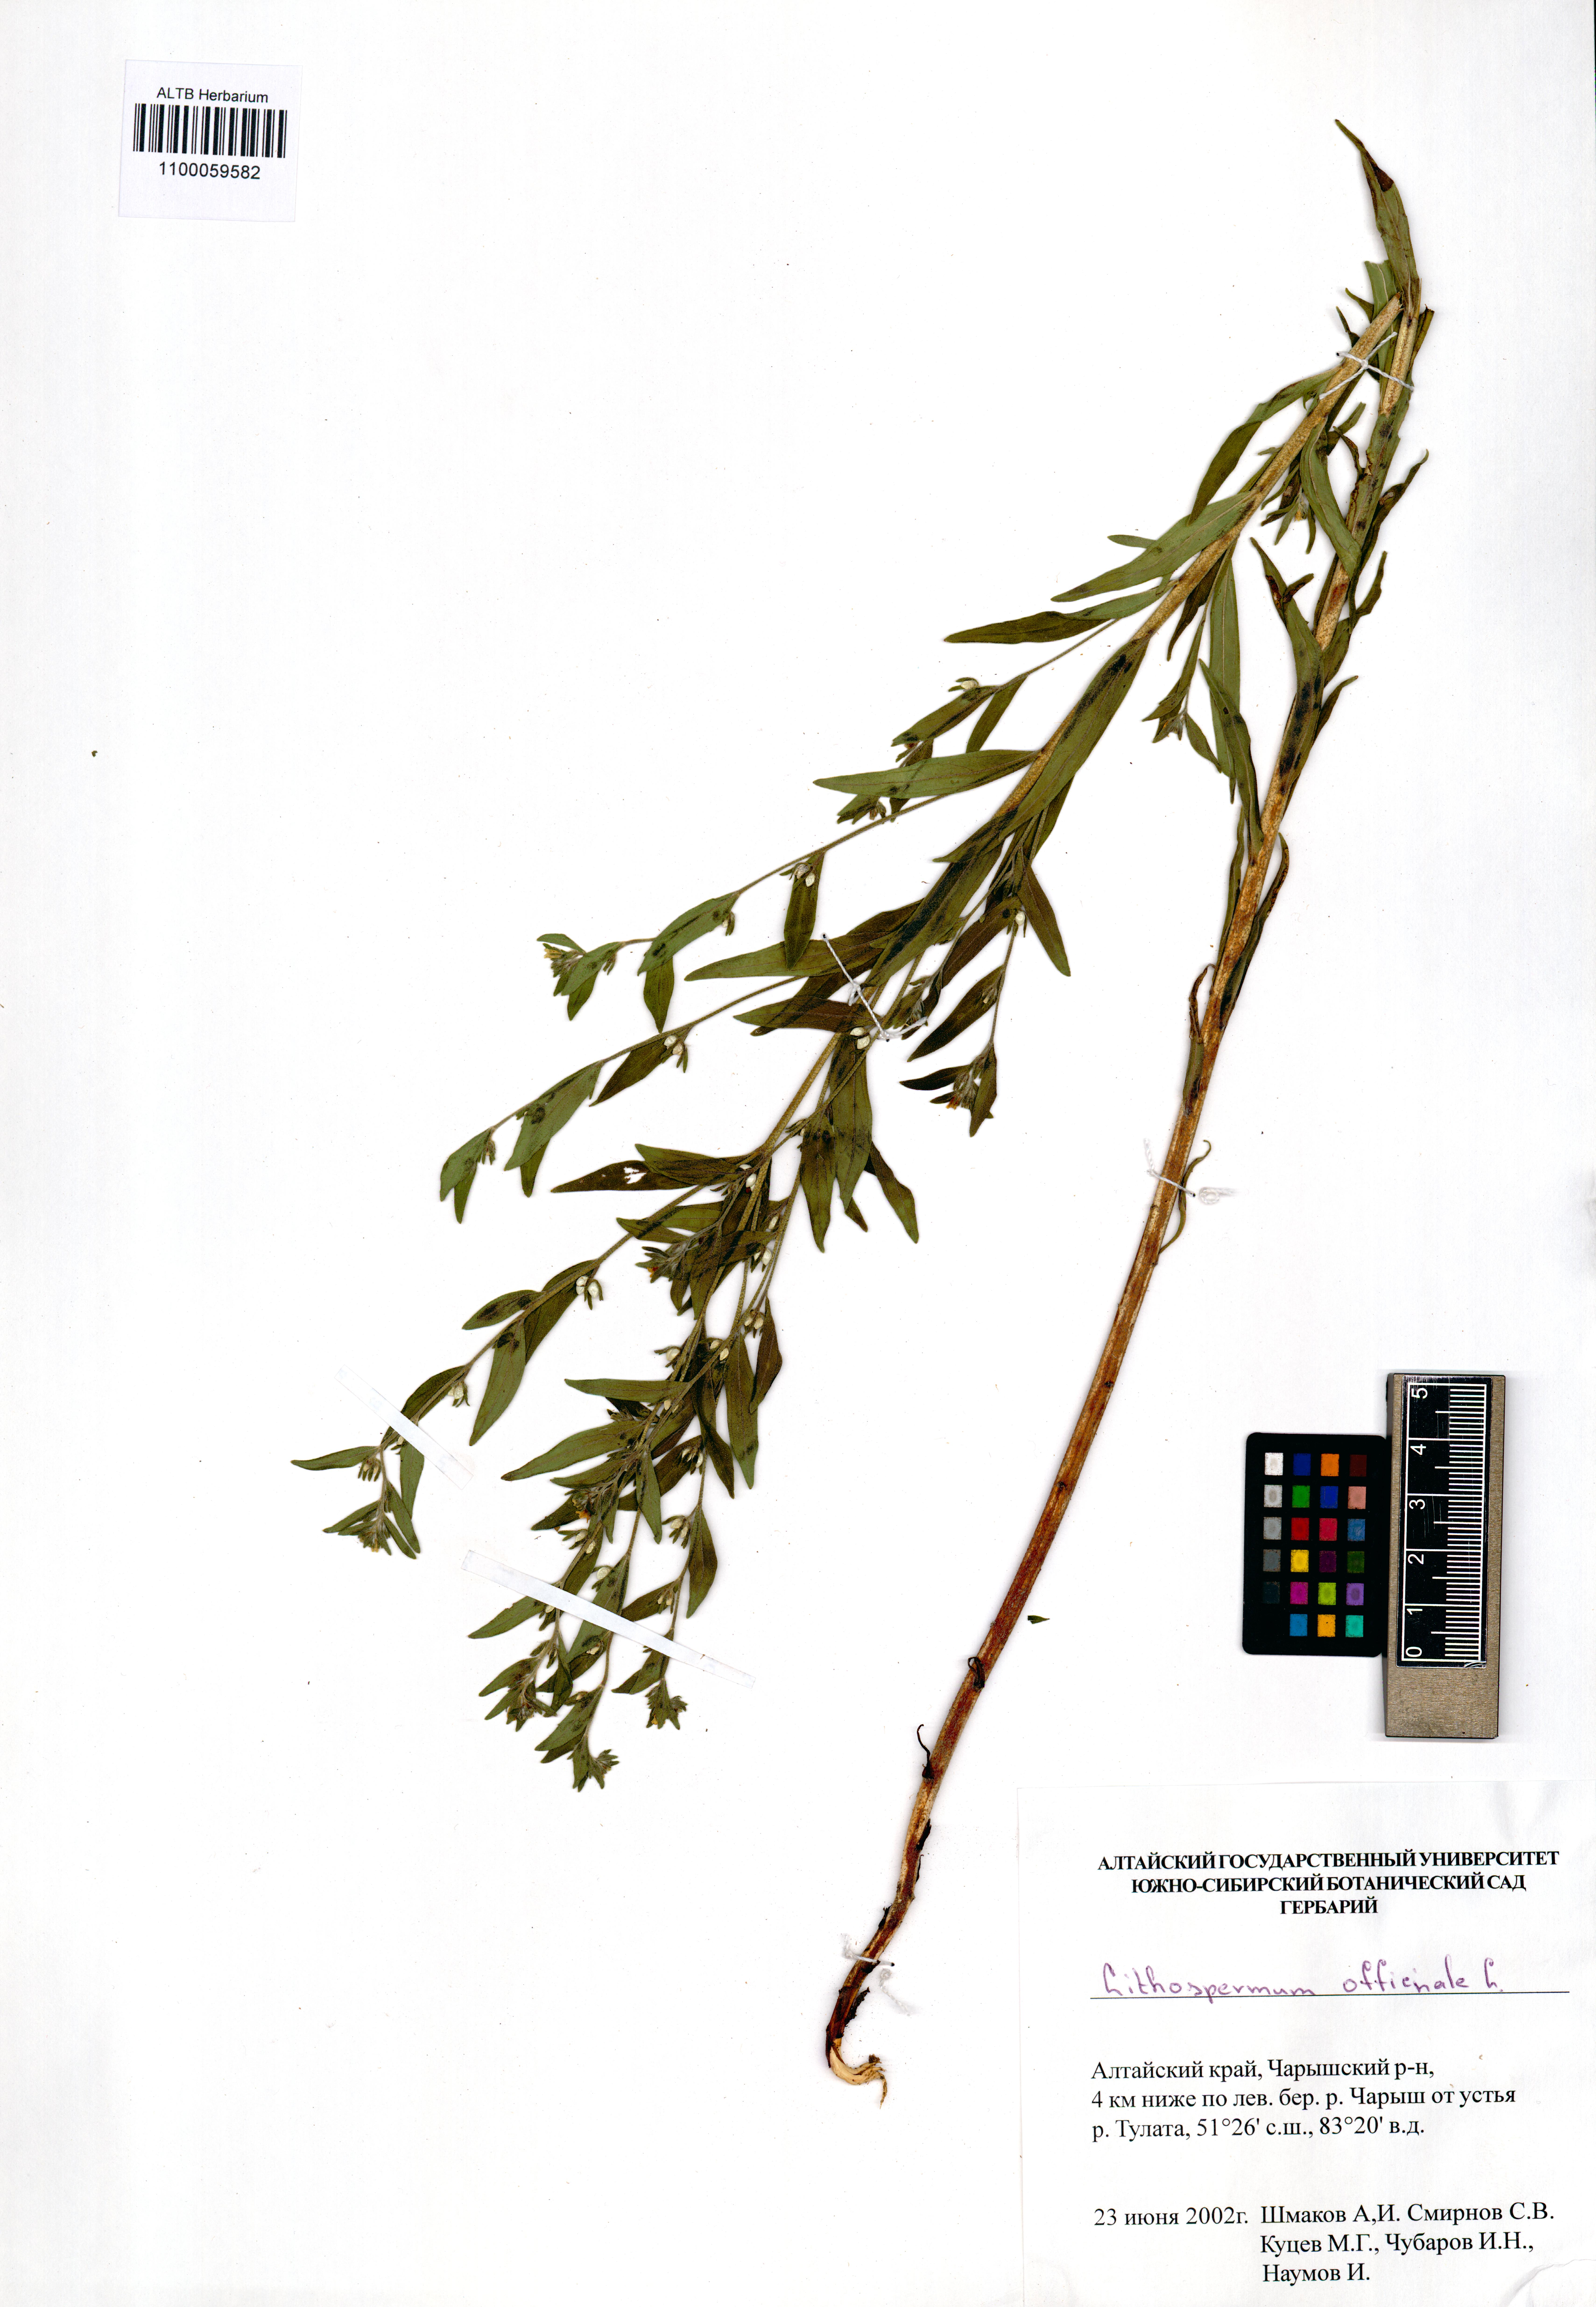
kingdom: Plantae
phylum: Tracheophyta
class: Magnoliopsida
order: Boraginales
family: Boraginaceae
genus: Lithospermum
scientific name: Lithospermum officinale
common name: Common gromwell
